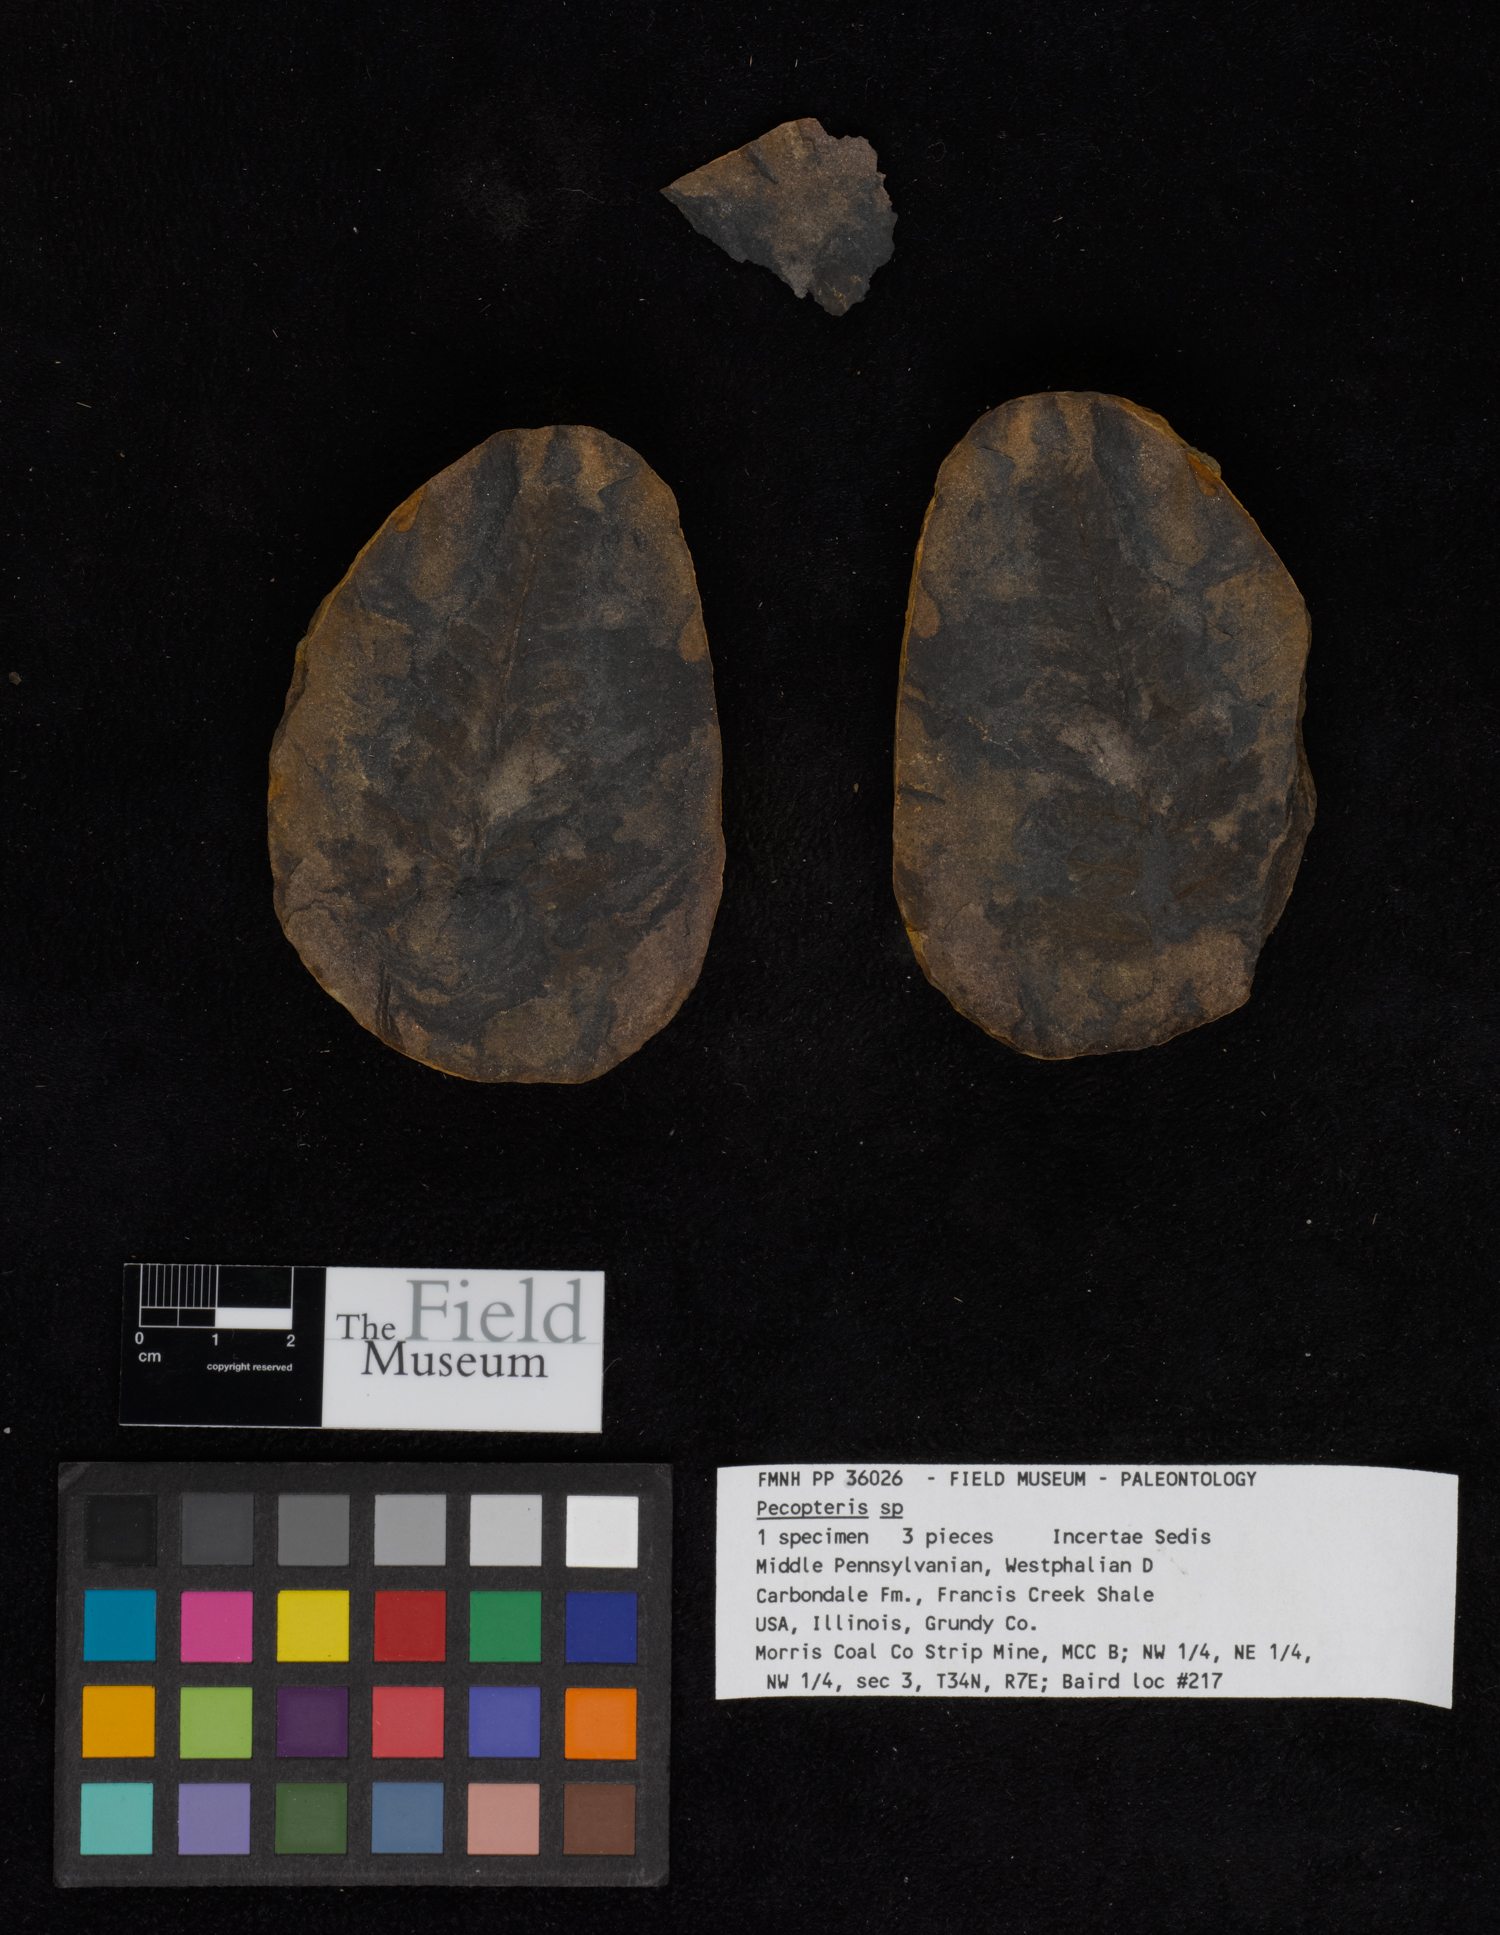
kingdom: Plantae
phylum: Tracheophyta
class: Polypodiopsida
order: Marattiales
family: Asterothecaceae
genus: Pecopteris
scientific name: Pecopteris
